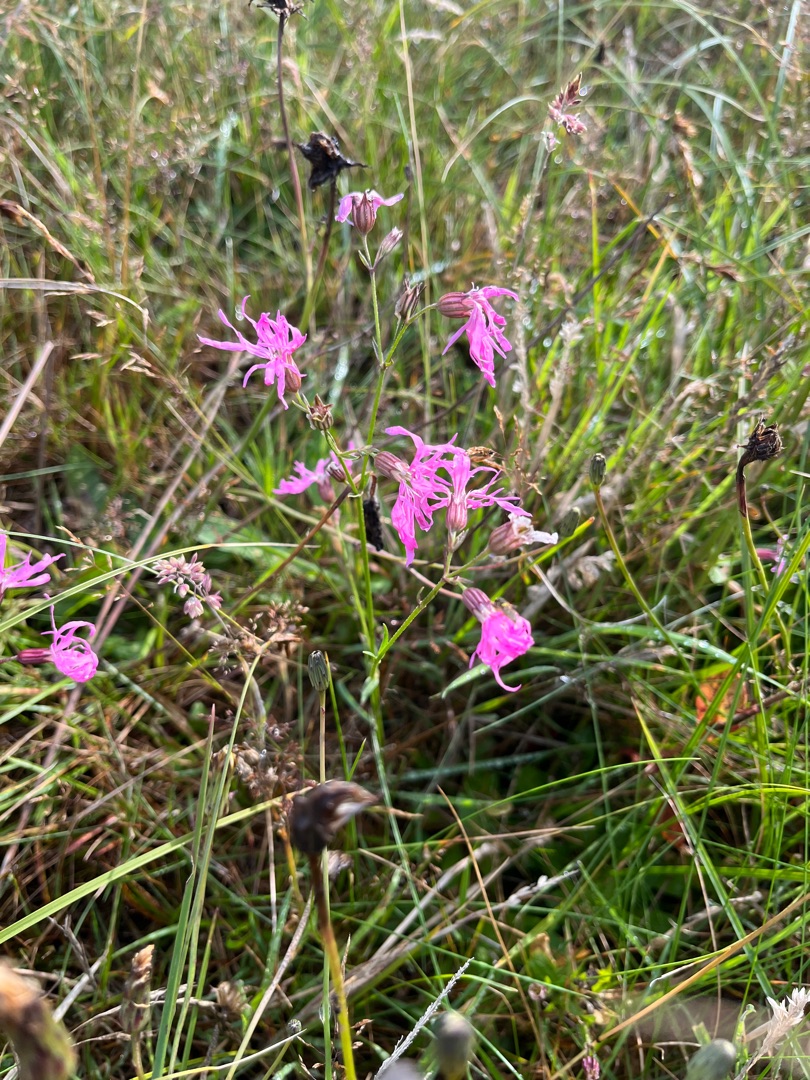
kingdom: Plantae
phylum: Tracheophyta
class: Magnoliopsida
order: Caryophyllales
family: Caryophyllaceae
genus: Silene
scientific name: Silene flos-cuculi
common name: Trævlekrone
